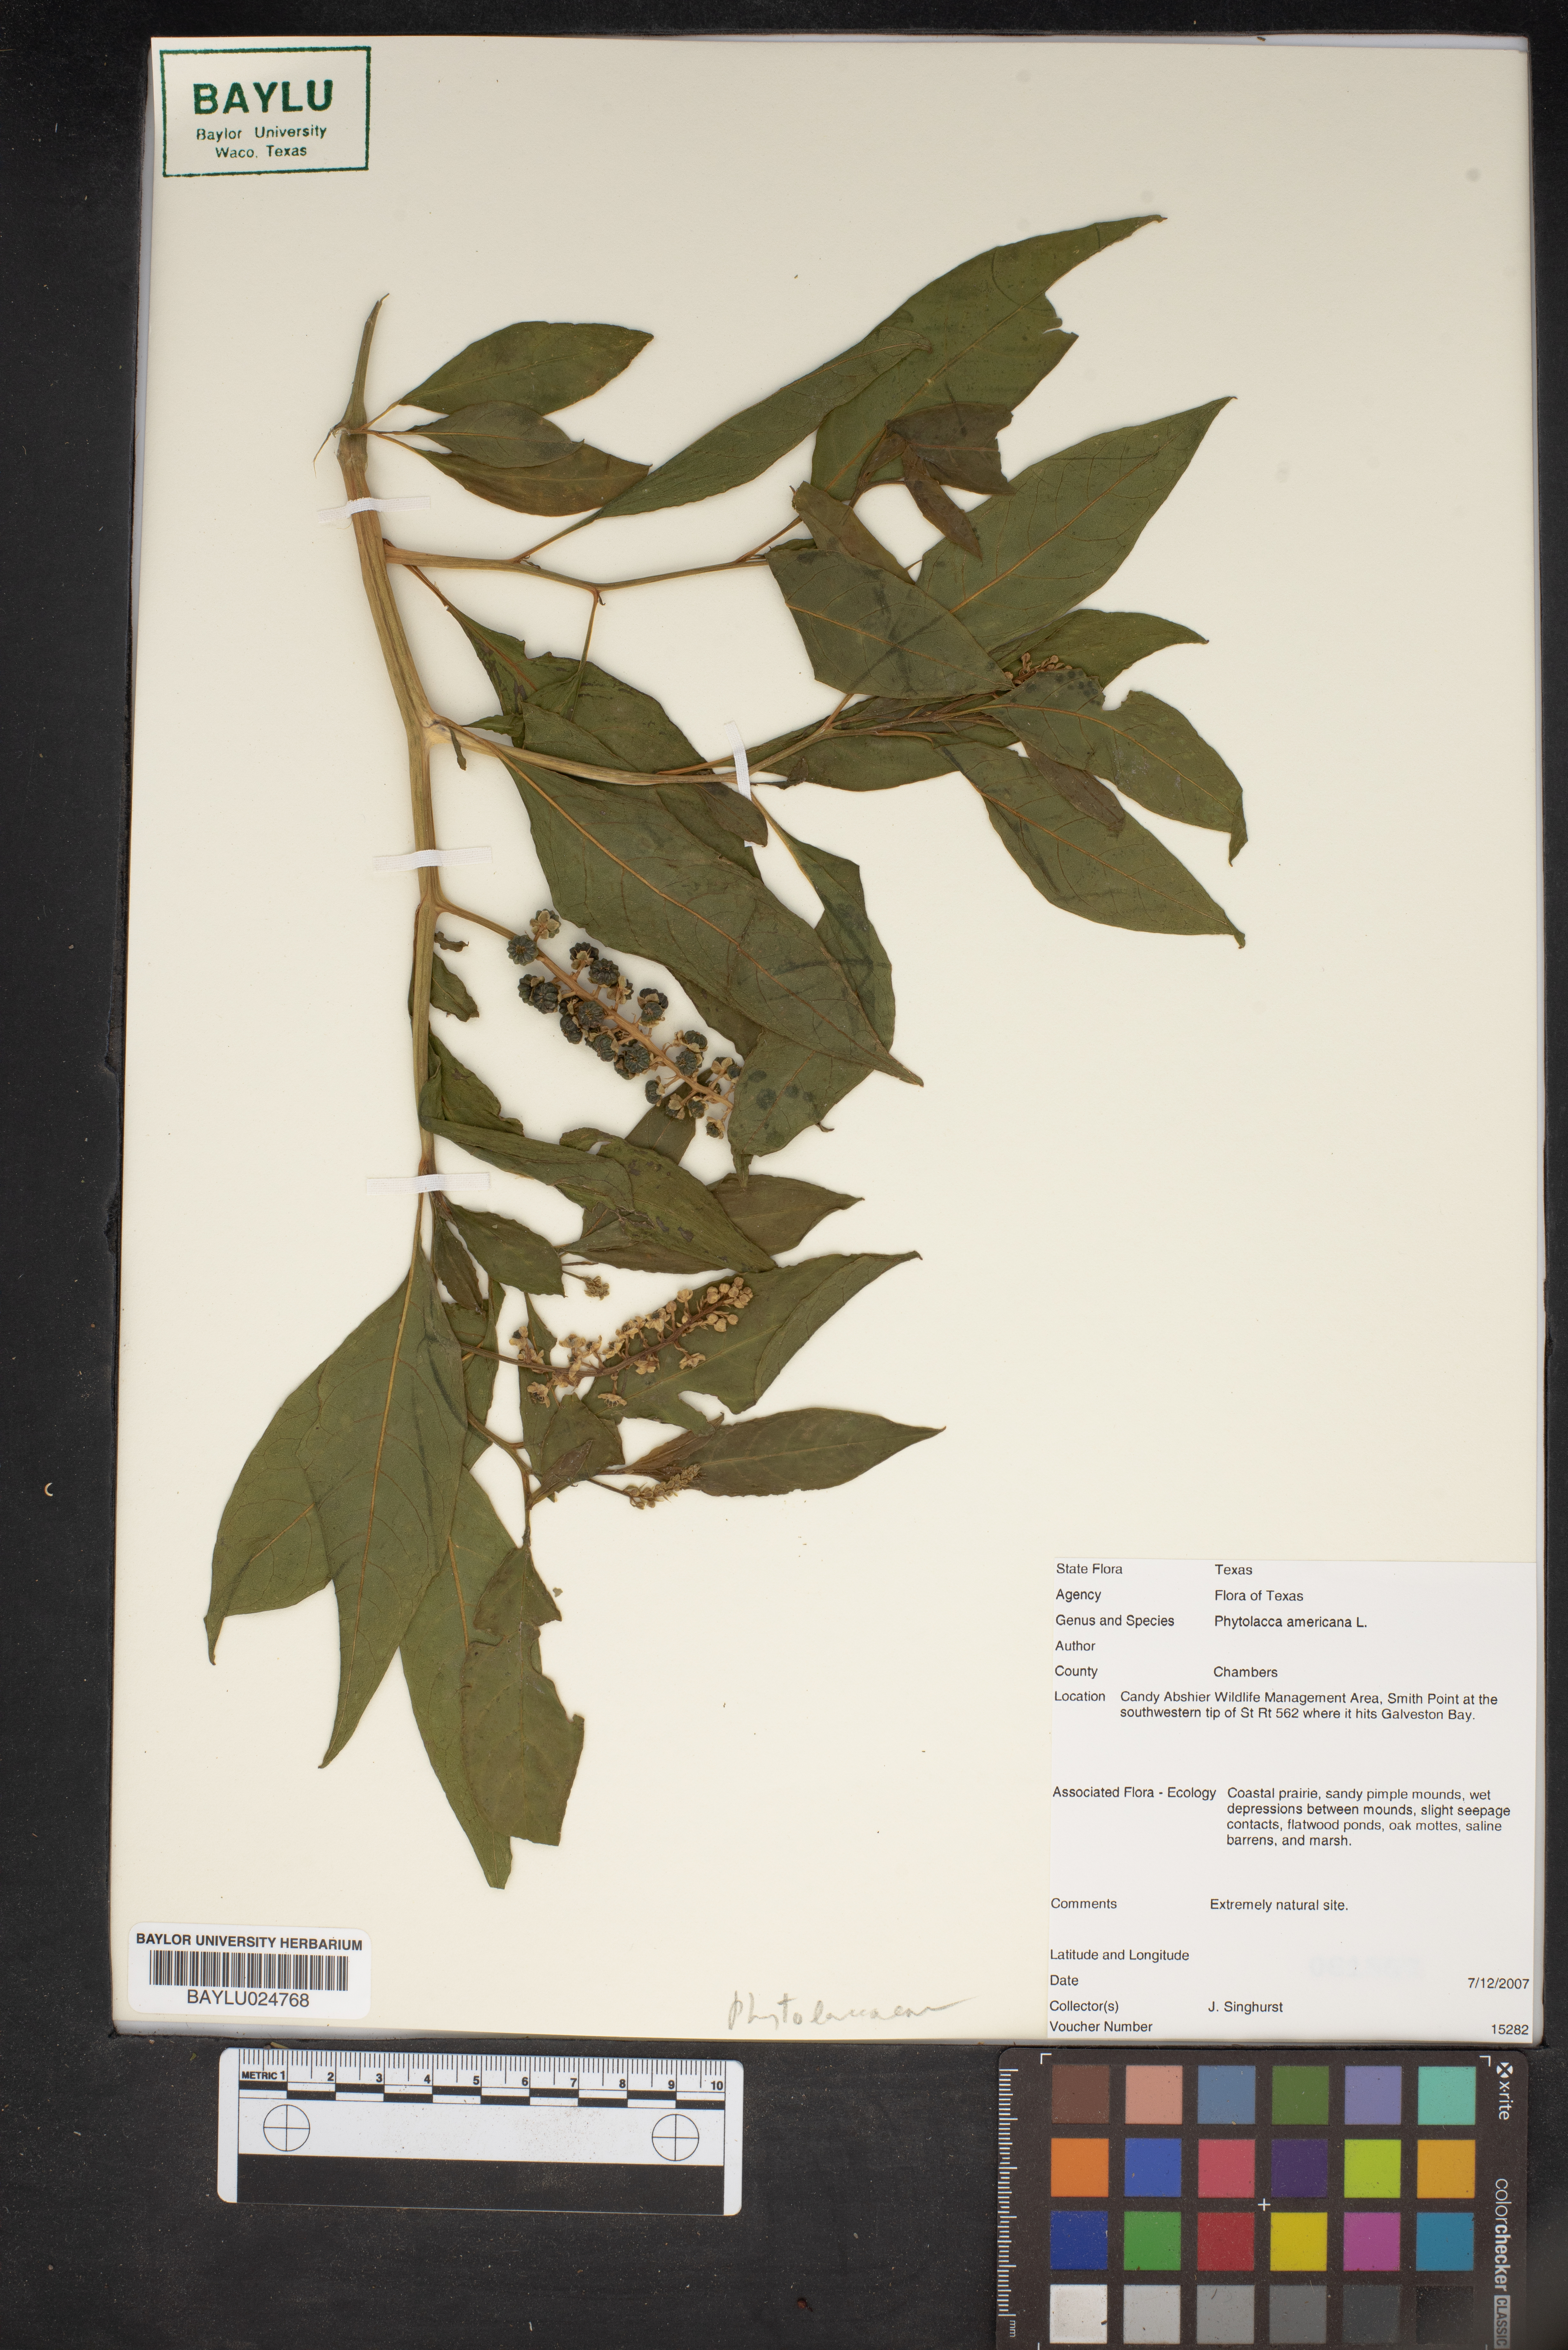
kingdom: Plantae
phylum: Tracheophyta
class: Magnoliopsida
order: Caryophyllales
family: Phytolaccaceae
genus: Phytolacca
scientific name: Phytolacca americana
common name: American pokeweed
